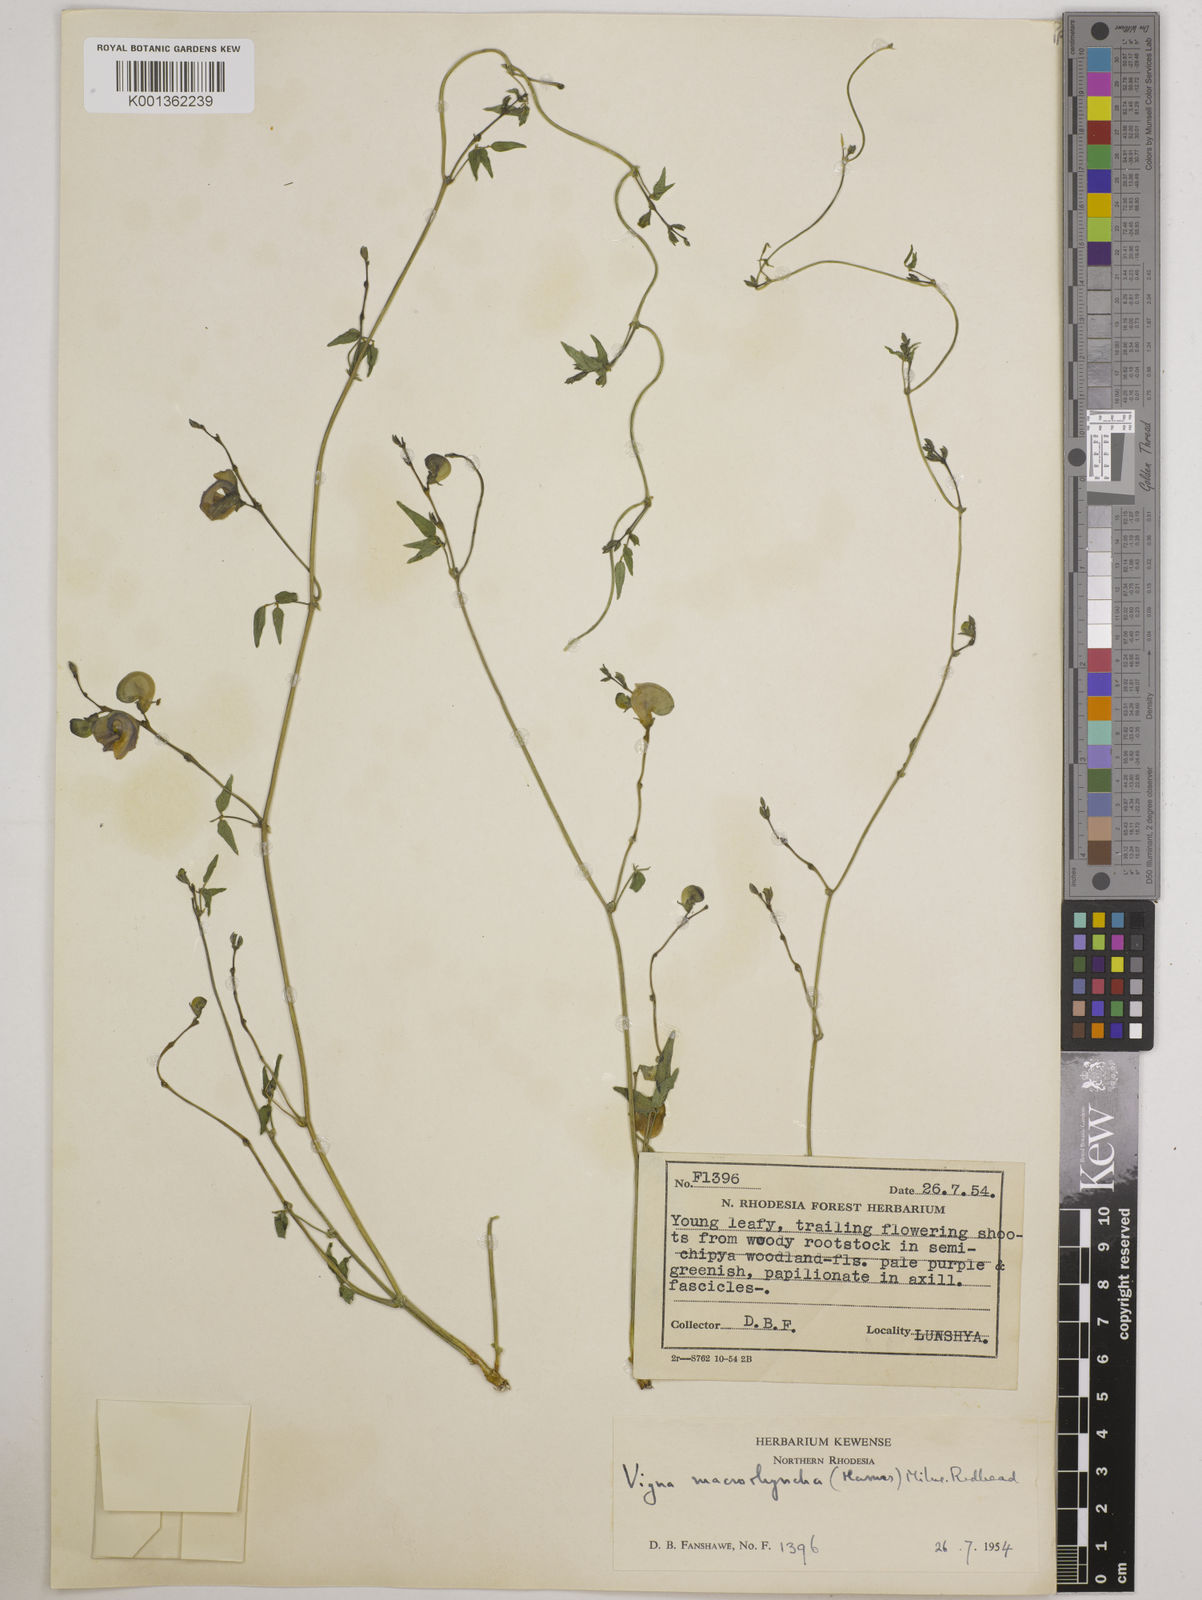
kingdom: Plantae
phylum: Tracheophyta
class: Magnoliopsida
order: Fabales
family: Fabaceae
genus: Wajira
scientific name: Wajira grahamiana
